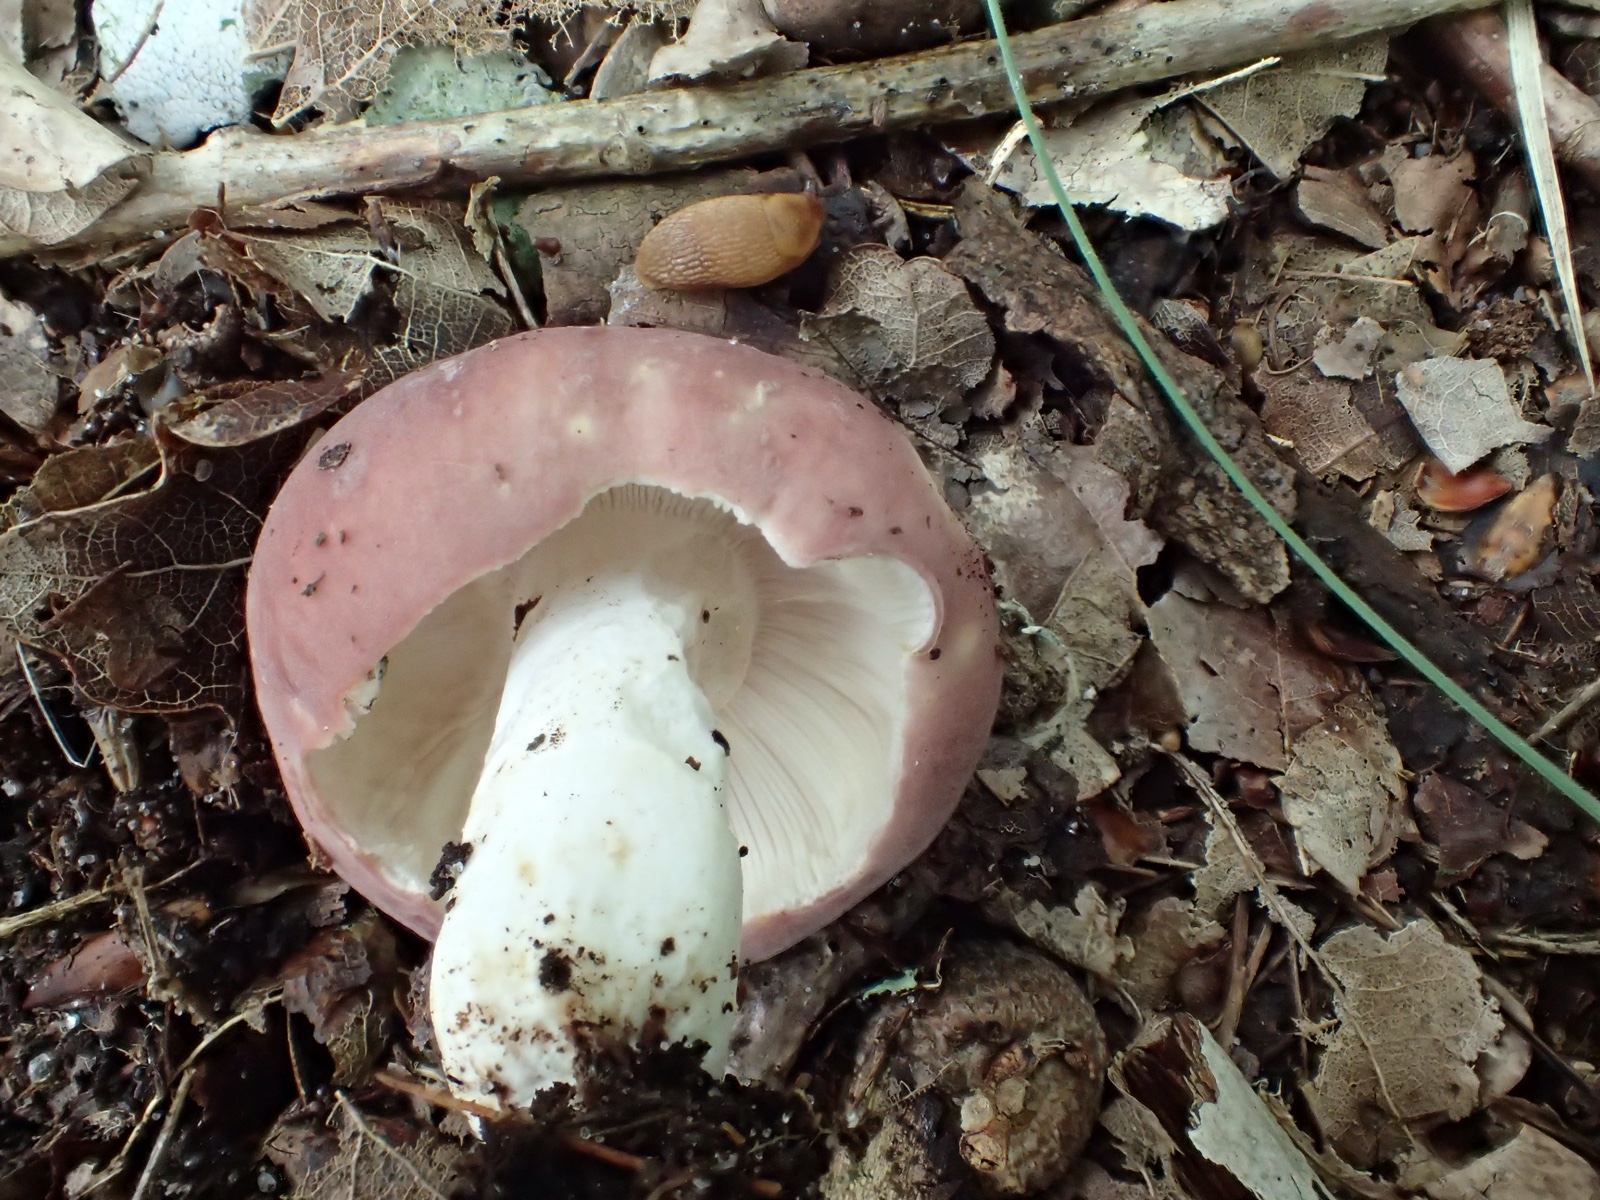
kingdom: Fungi
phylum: Basidiomycota
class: Agaricomycetes
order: Russulales
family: Russulaceae
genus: Russula
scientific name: Russula vesca
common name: spiselig skørhat
